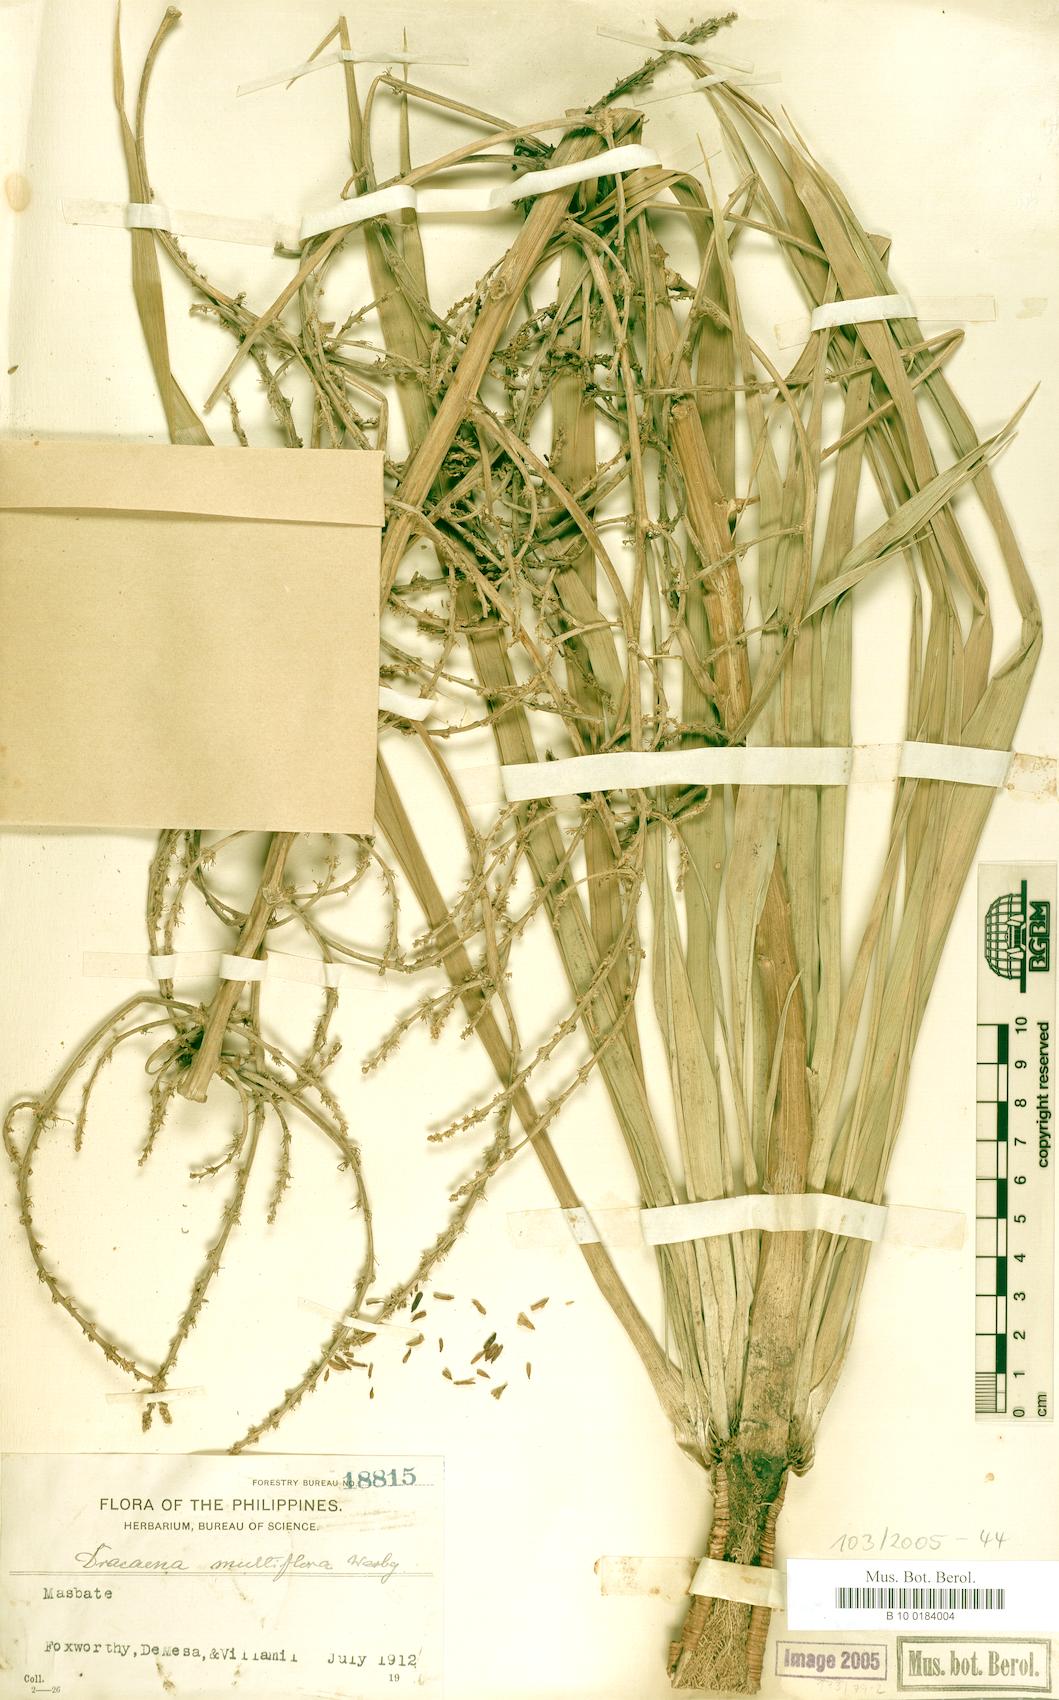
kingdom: Plantae
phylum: Tracheophyta
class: Liliopsida
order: Asparagales
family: Asparagaceae
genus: Dracaena
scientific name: Dracaena multiflora
